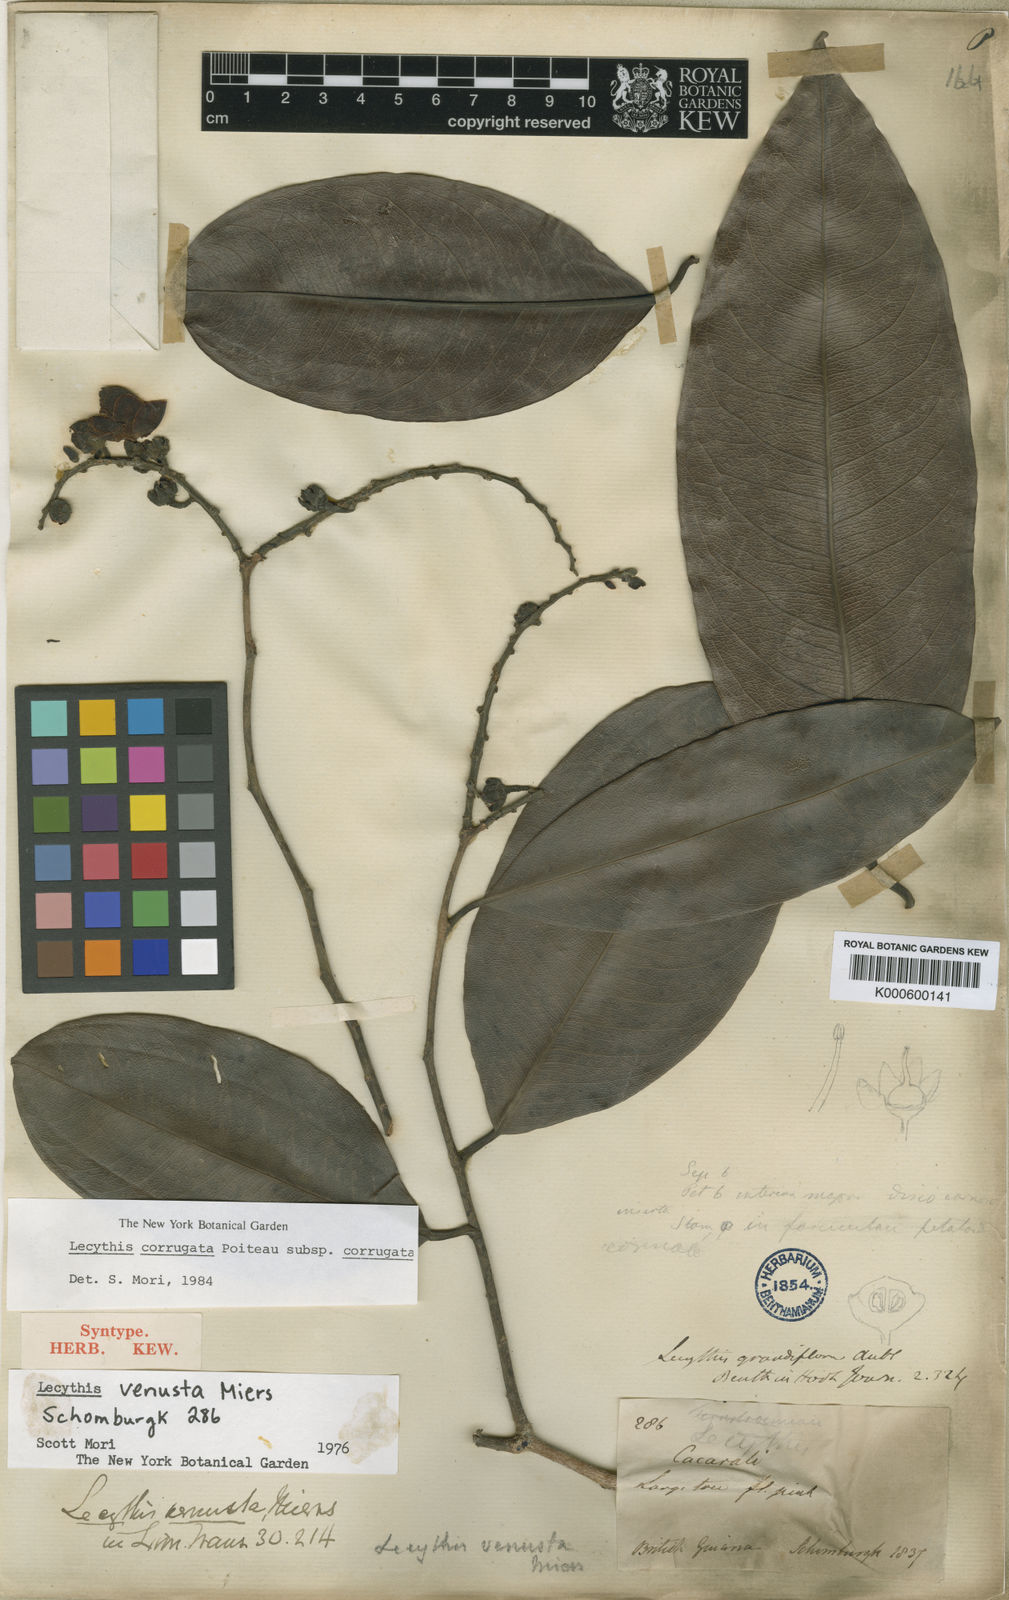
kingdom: Plantae
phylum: Tracheophyta
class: Magnoliopsida
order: Ericales
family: Lecythidaceae
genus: Lecythis
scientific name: Lecythis corrugata
